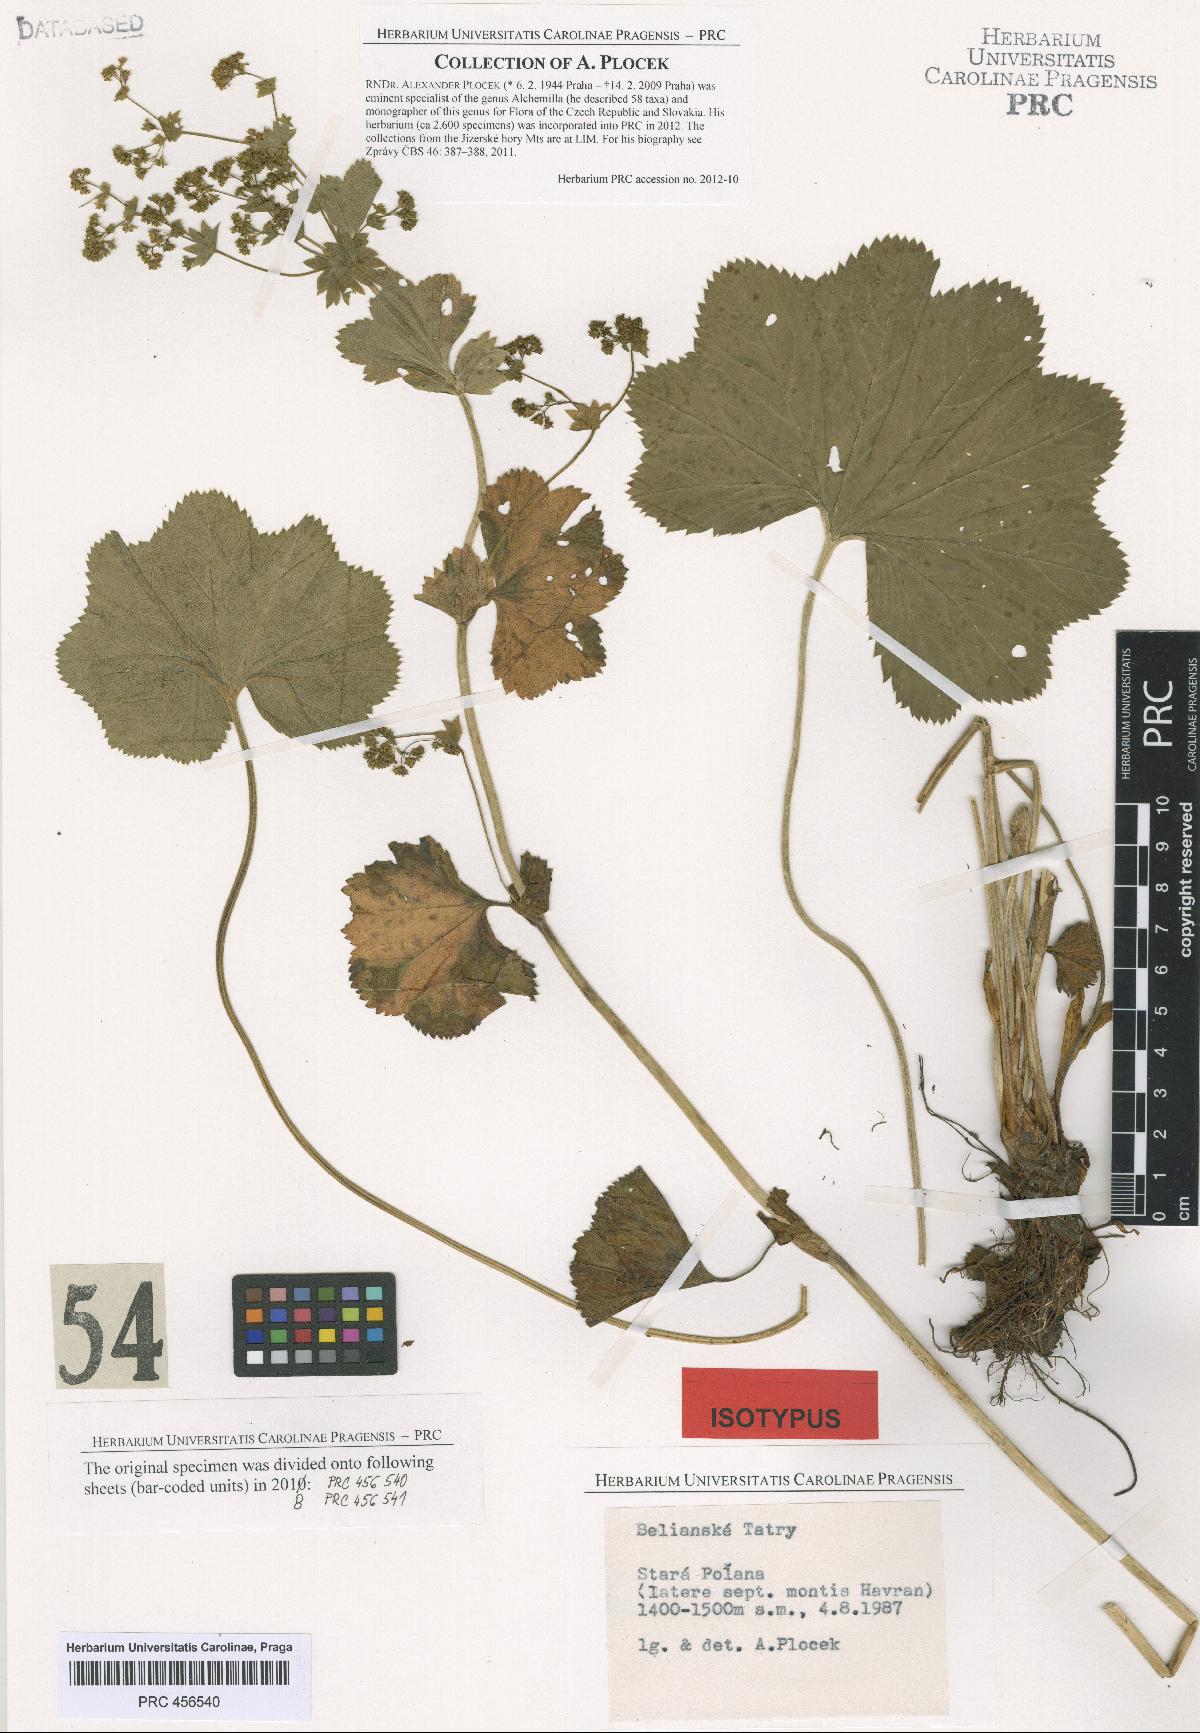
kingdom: Plantae
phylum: Tracheophyta
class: Magnoliopsida
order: Rosales
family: Rosaceae
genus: Alchemilla
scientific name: Alchemilla amauroptera
